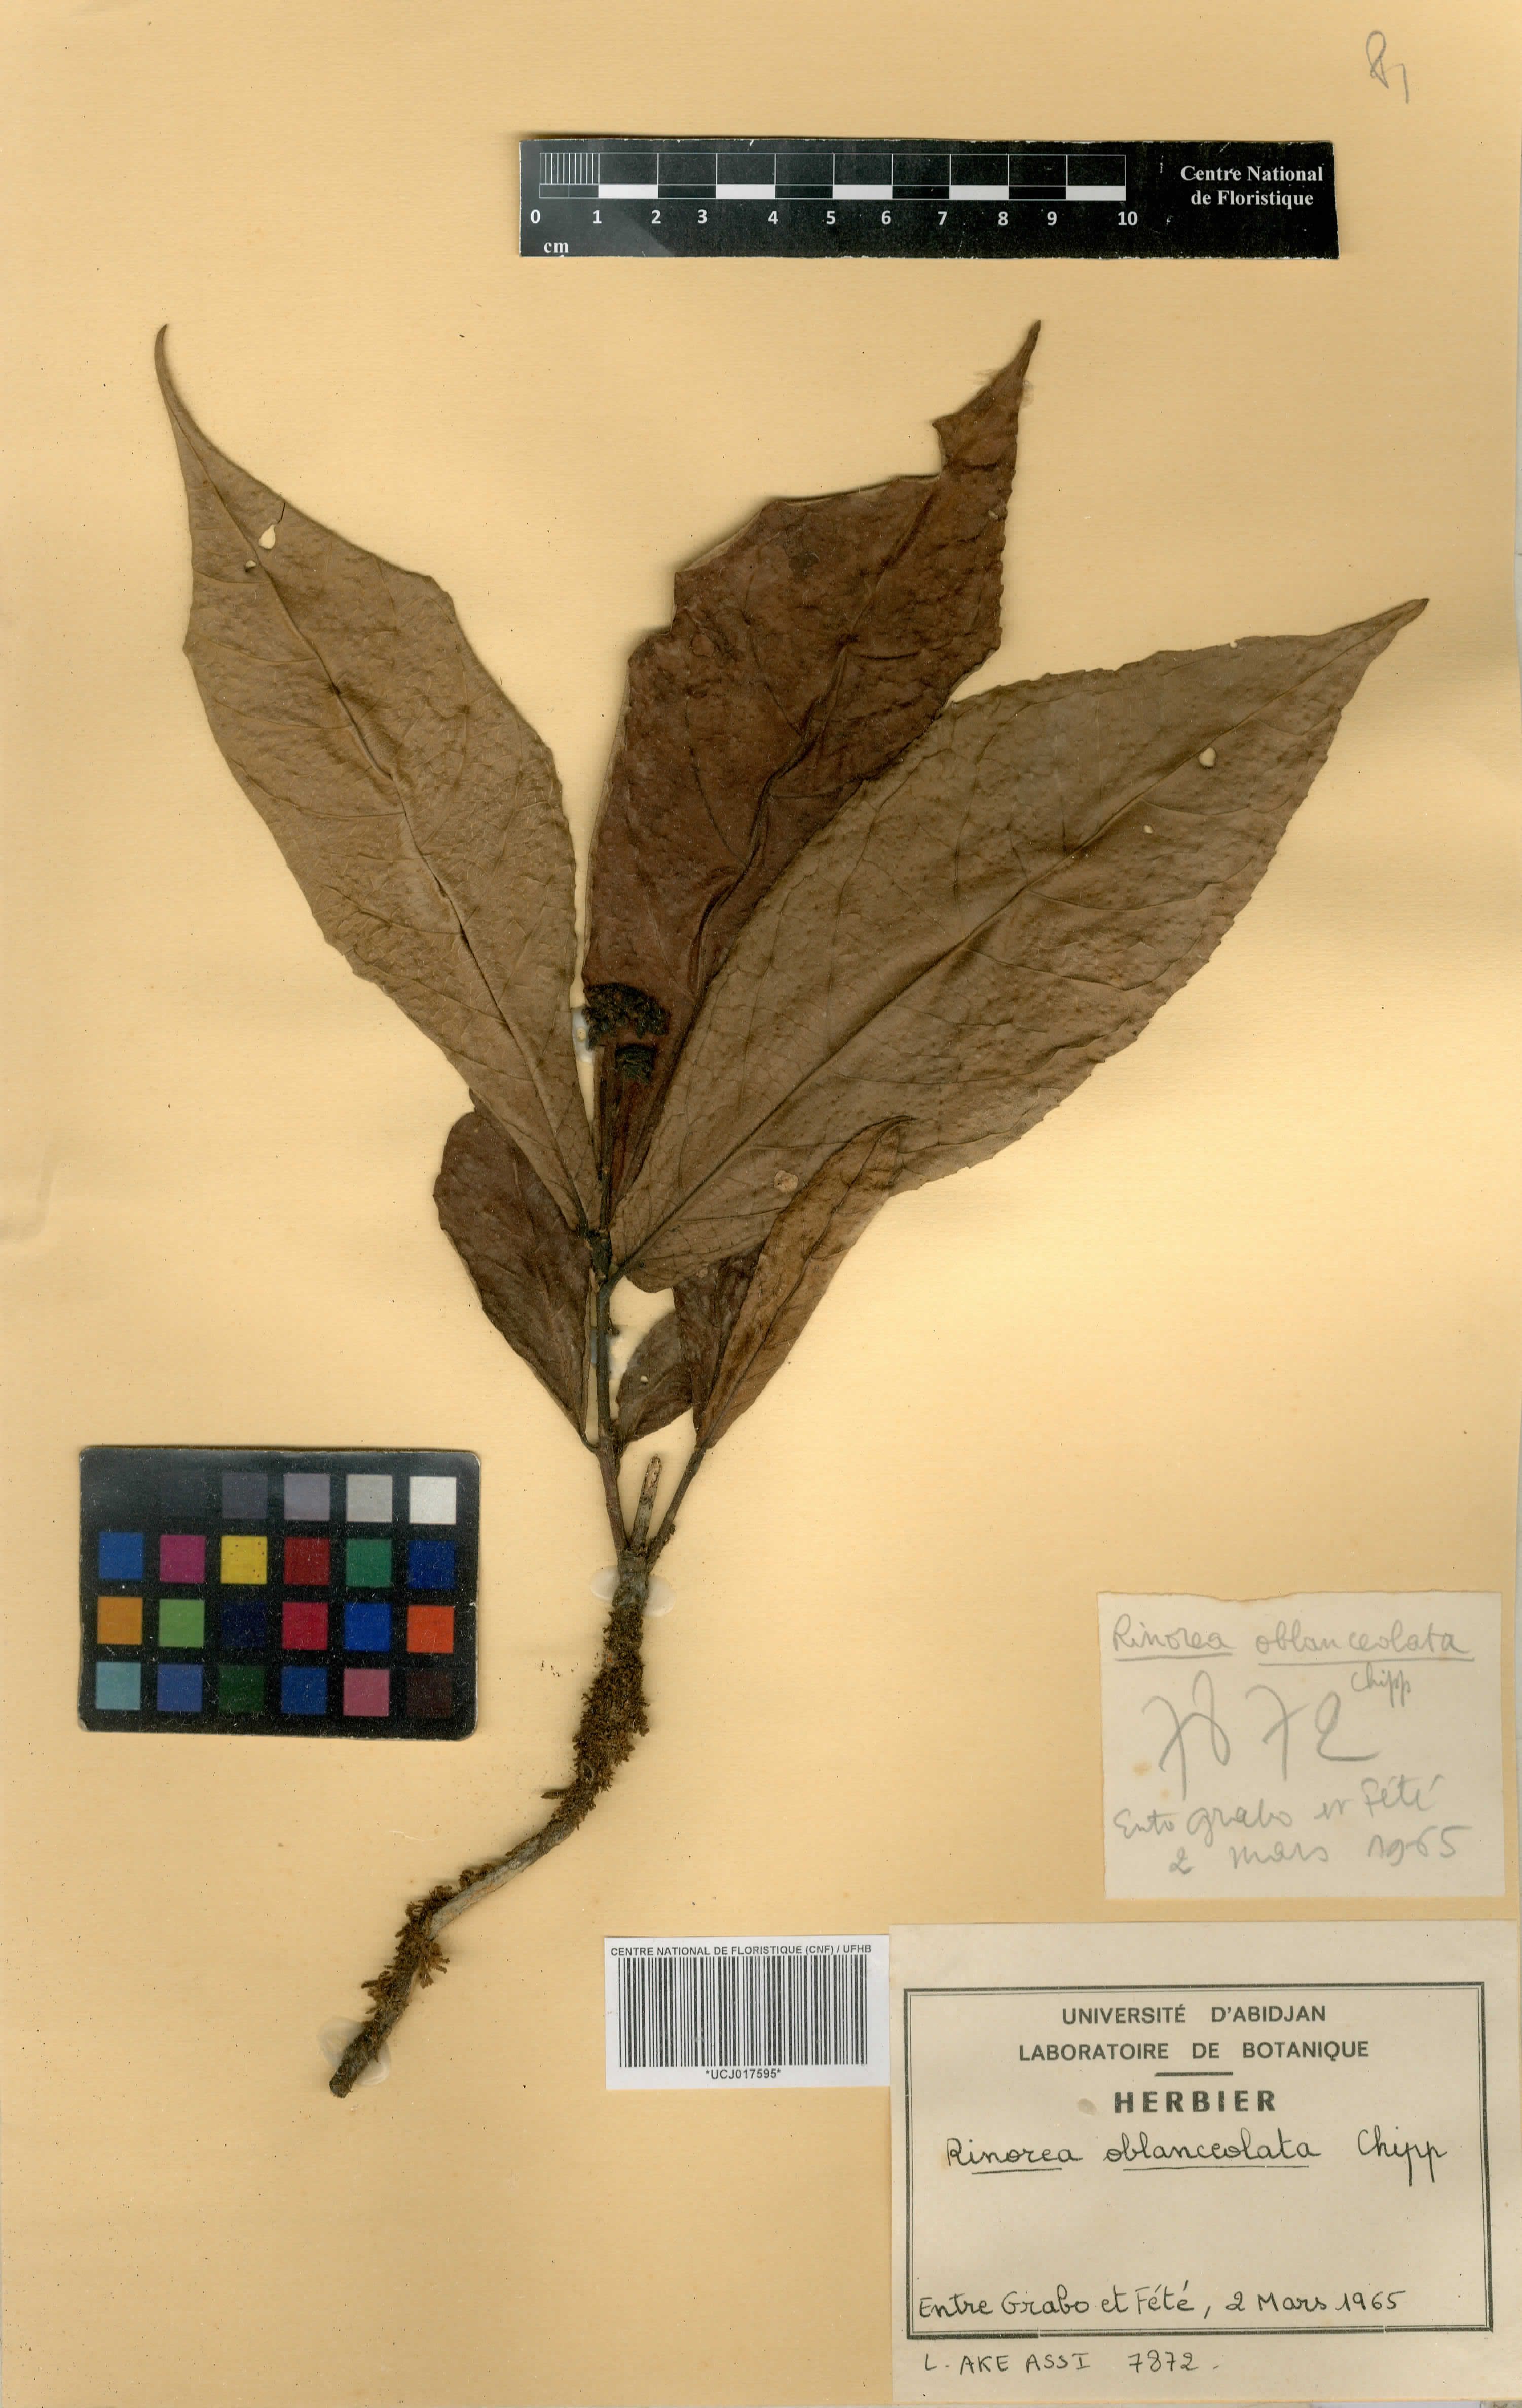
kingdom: Plantae
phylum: Tracheophyta
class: Magnoliopsida
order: Malpighiales
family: Violaceae
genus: Rinorea
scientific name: Rinorea oblanceolata
